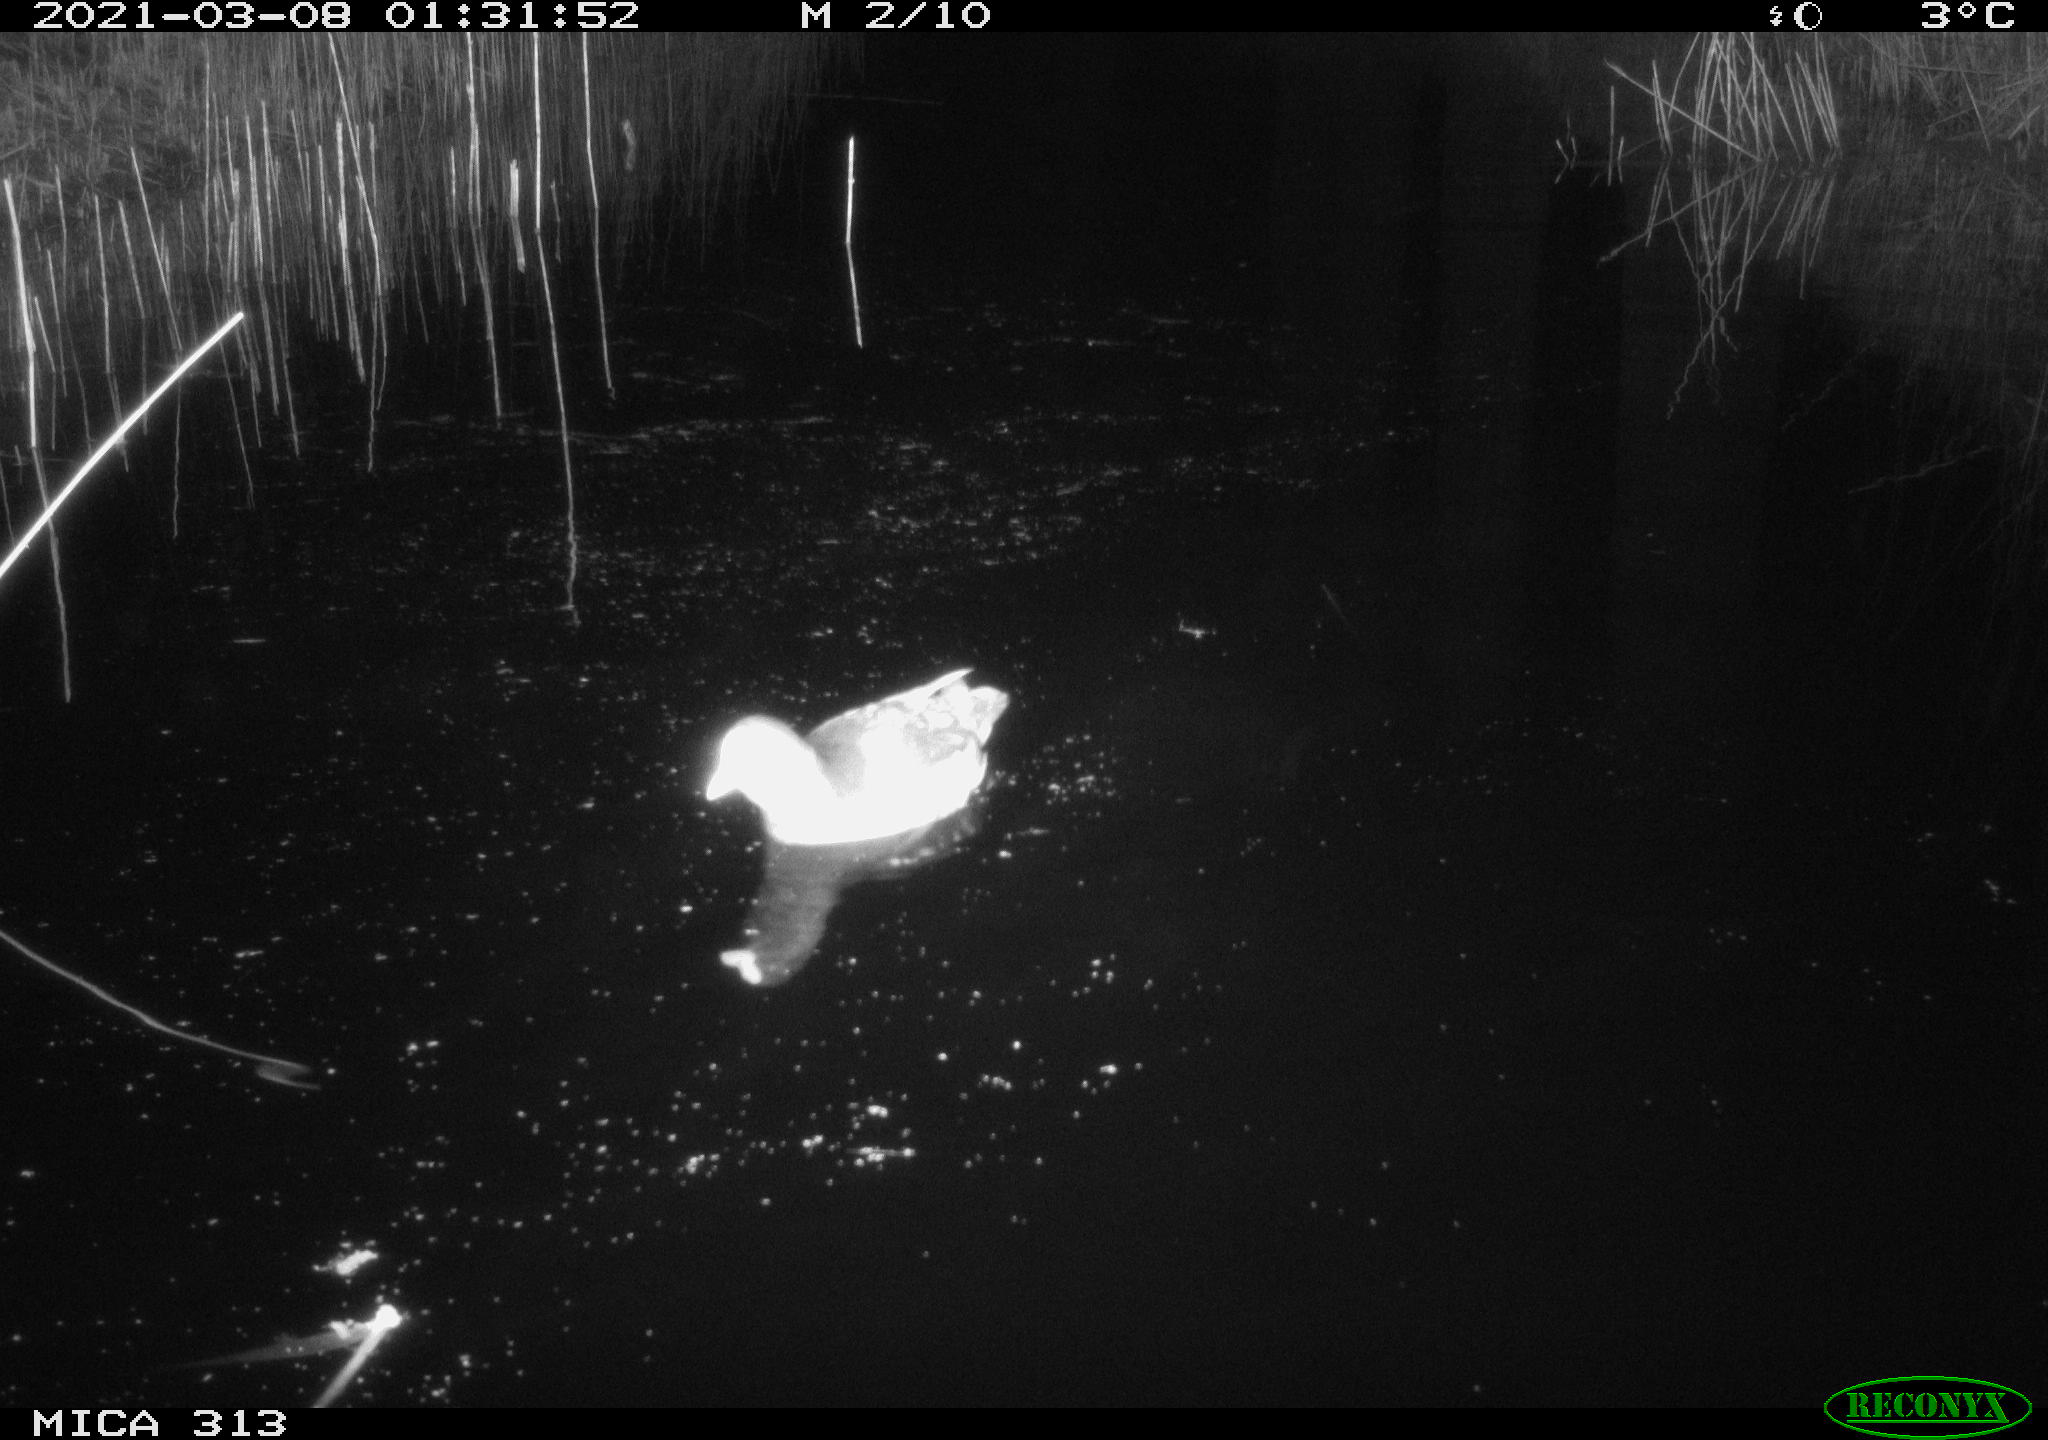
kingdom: Animalia
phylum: Chordata
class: Aves
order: Gruiformes
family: Rallidae
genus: Gallinula
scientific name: Gallinula chloropus
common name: Common moorhen
